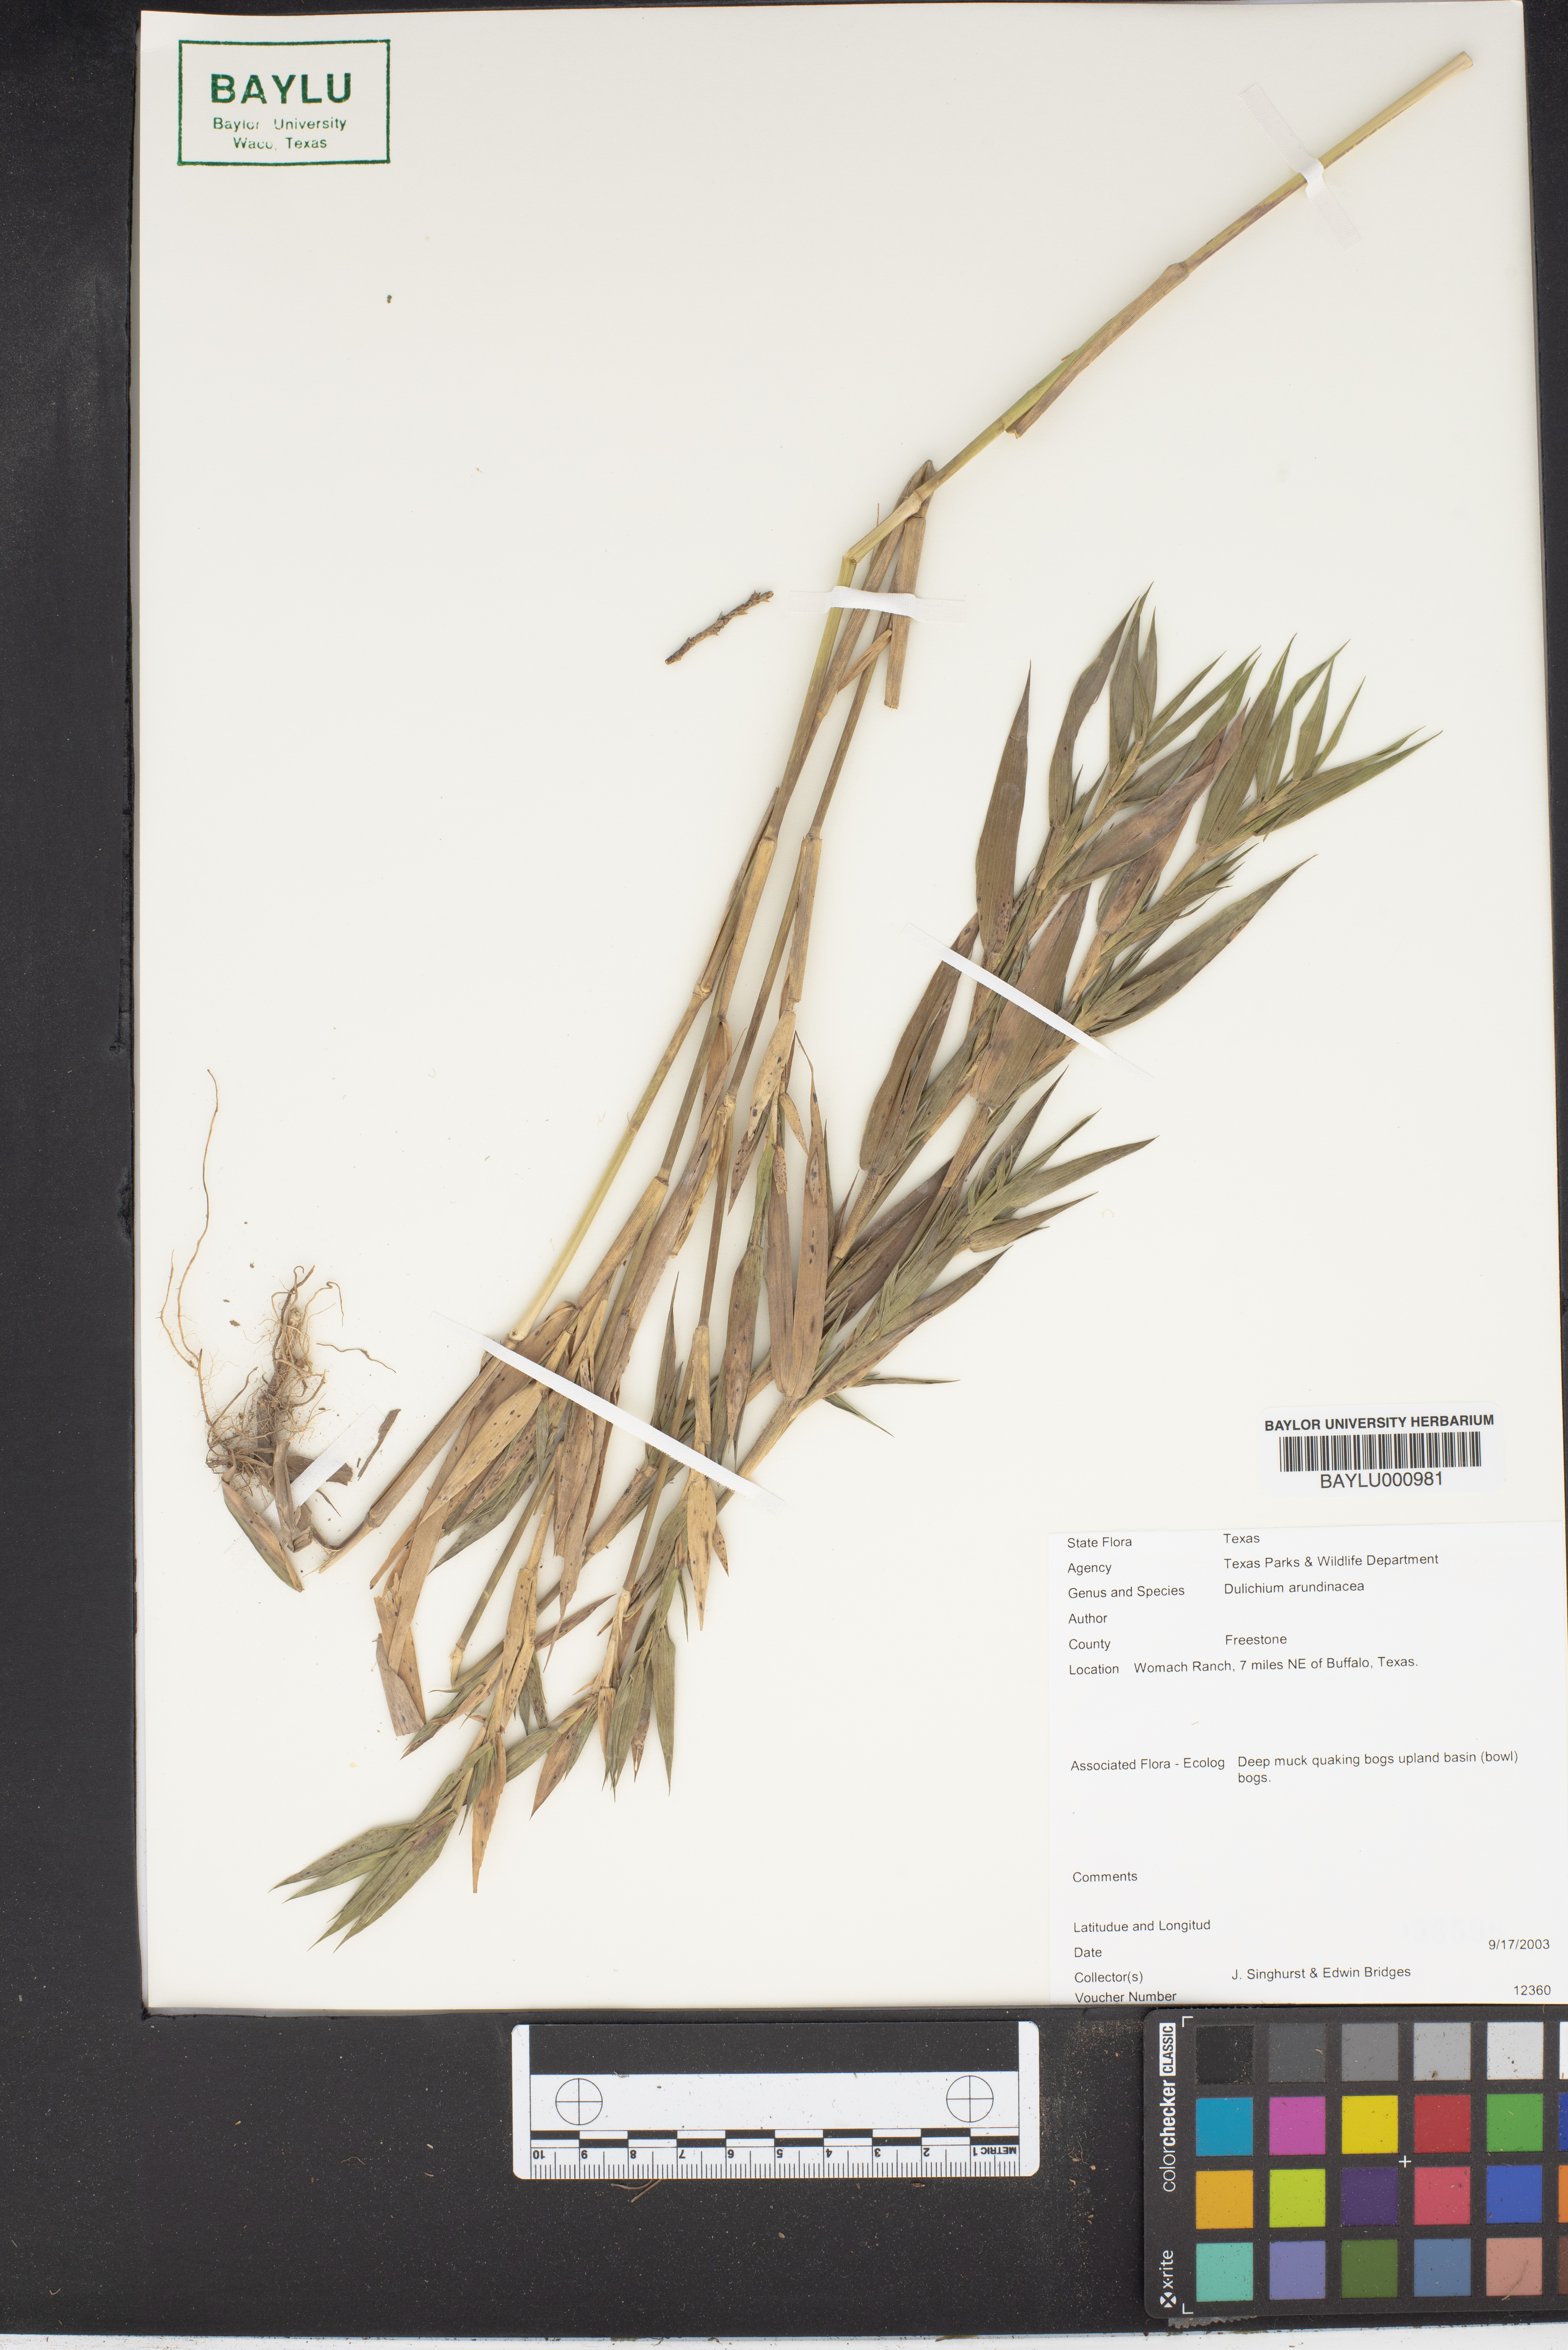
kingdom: Plantae
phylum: Tracheophyta
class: Liliopsida
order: Poales
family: Cyperaceae
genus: Dulichium
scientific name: Dulichium arundinaceum
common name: Three-way sedge
